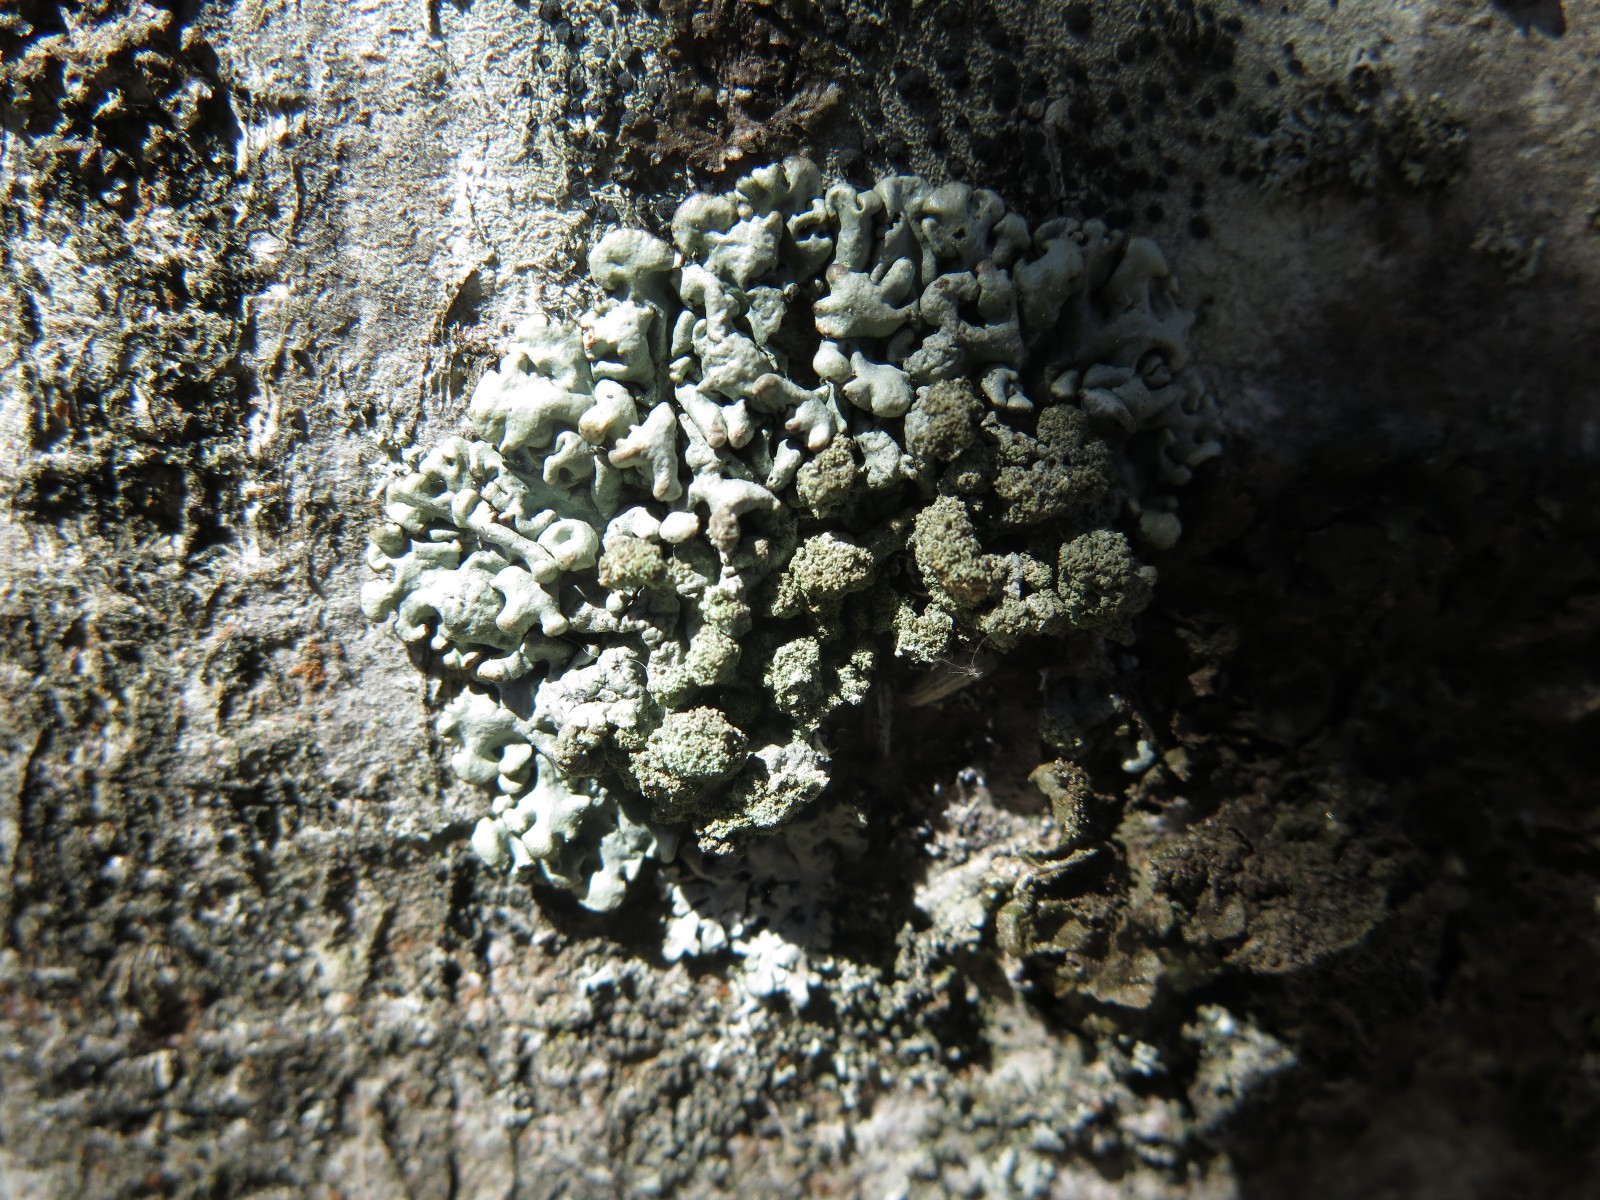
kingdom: Fungi
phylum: Ascomycota
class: Lecanoromycetes
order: Lecanorales
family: Parmeliaceae
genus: Hypogymnia
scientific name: Hypogymnia physodes
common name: almindelig kvistlav
